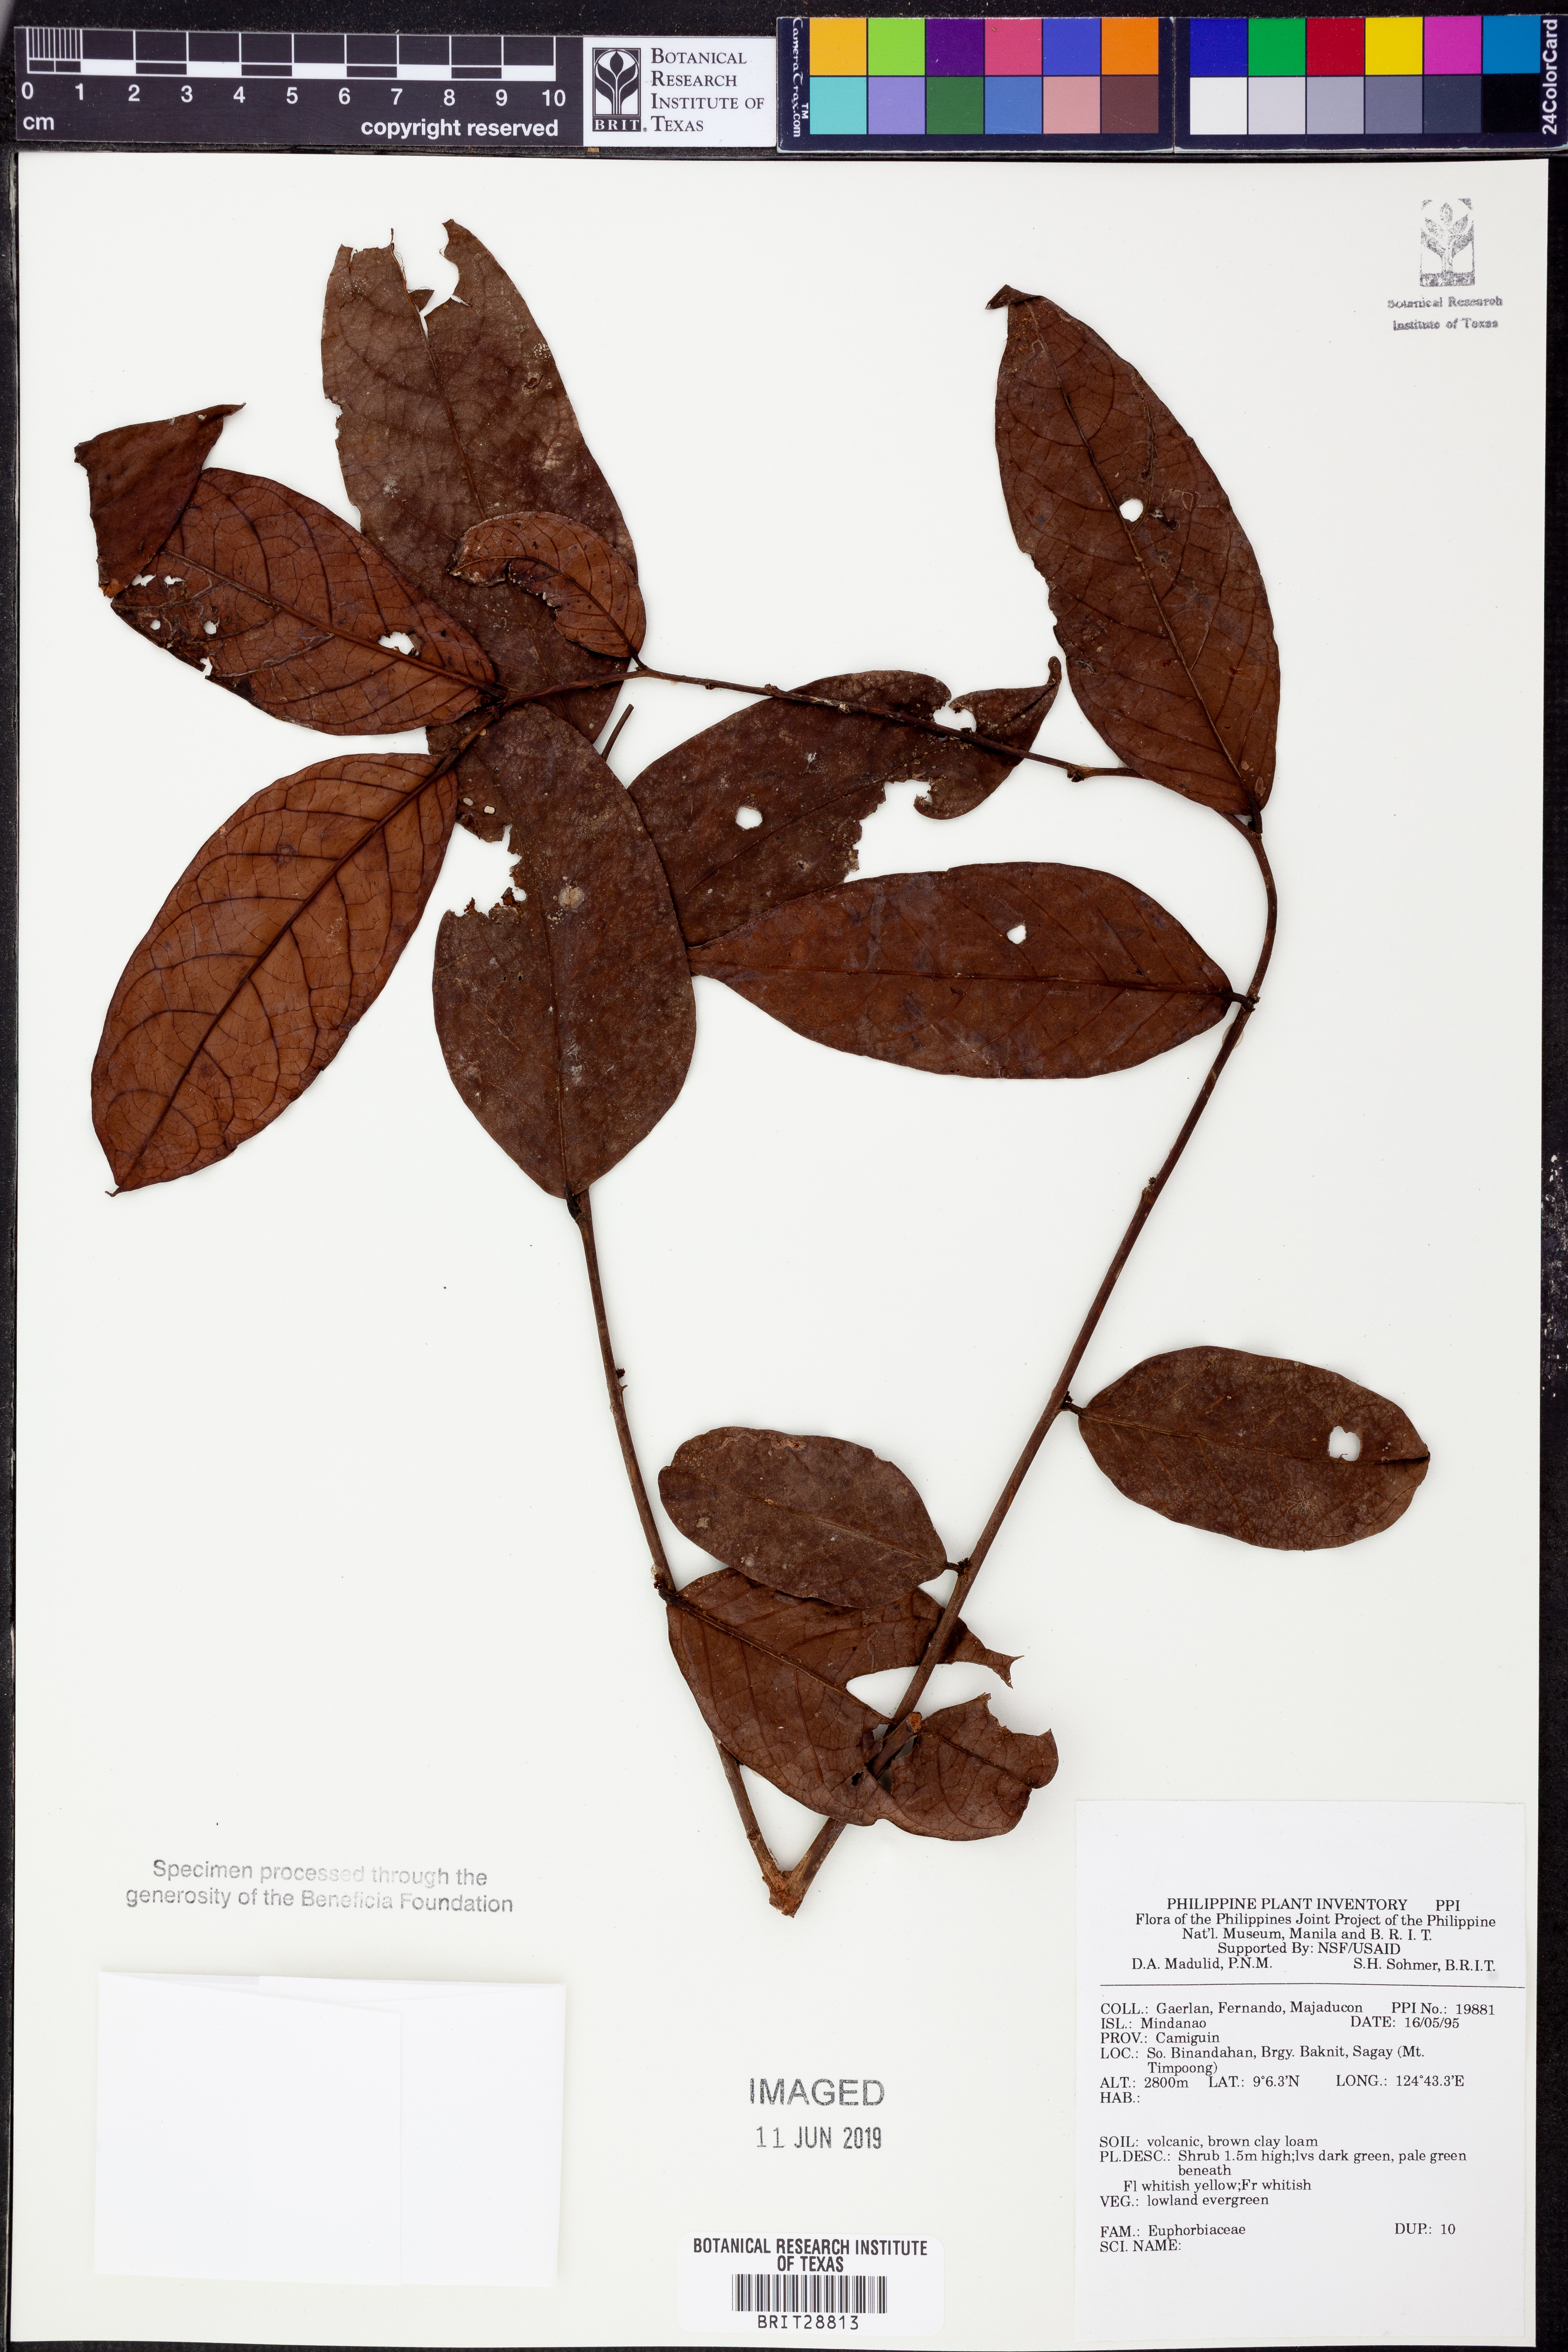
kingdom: Plantae
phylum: Tracheophyta
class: Magnoliopsida
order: Malpighiales
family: Euphorbiaceae
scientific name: Euphorbiaceae
